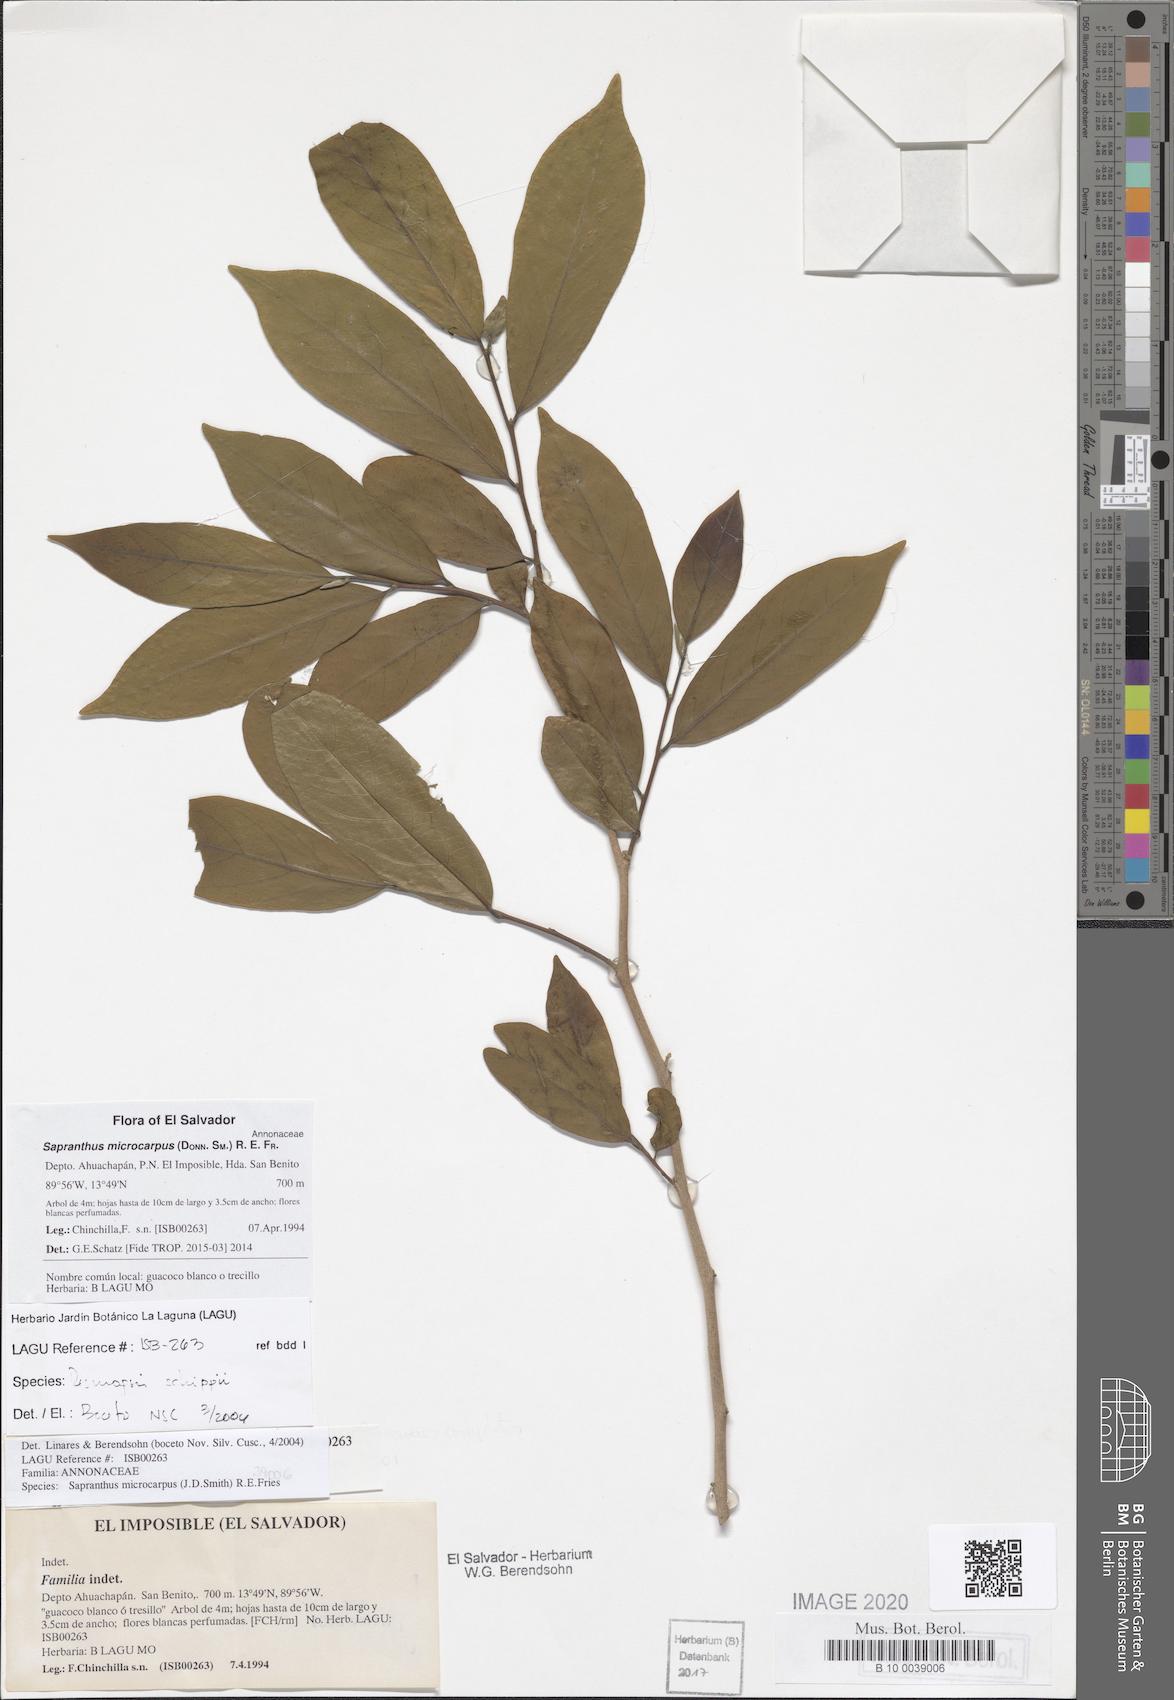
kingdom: Plantae
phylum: Tracheophyta
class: Magnoliopsida
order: Magnoliales
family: Annonaceae
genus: Sapranthus
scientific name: Sapranthus microcarpus
